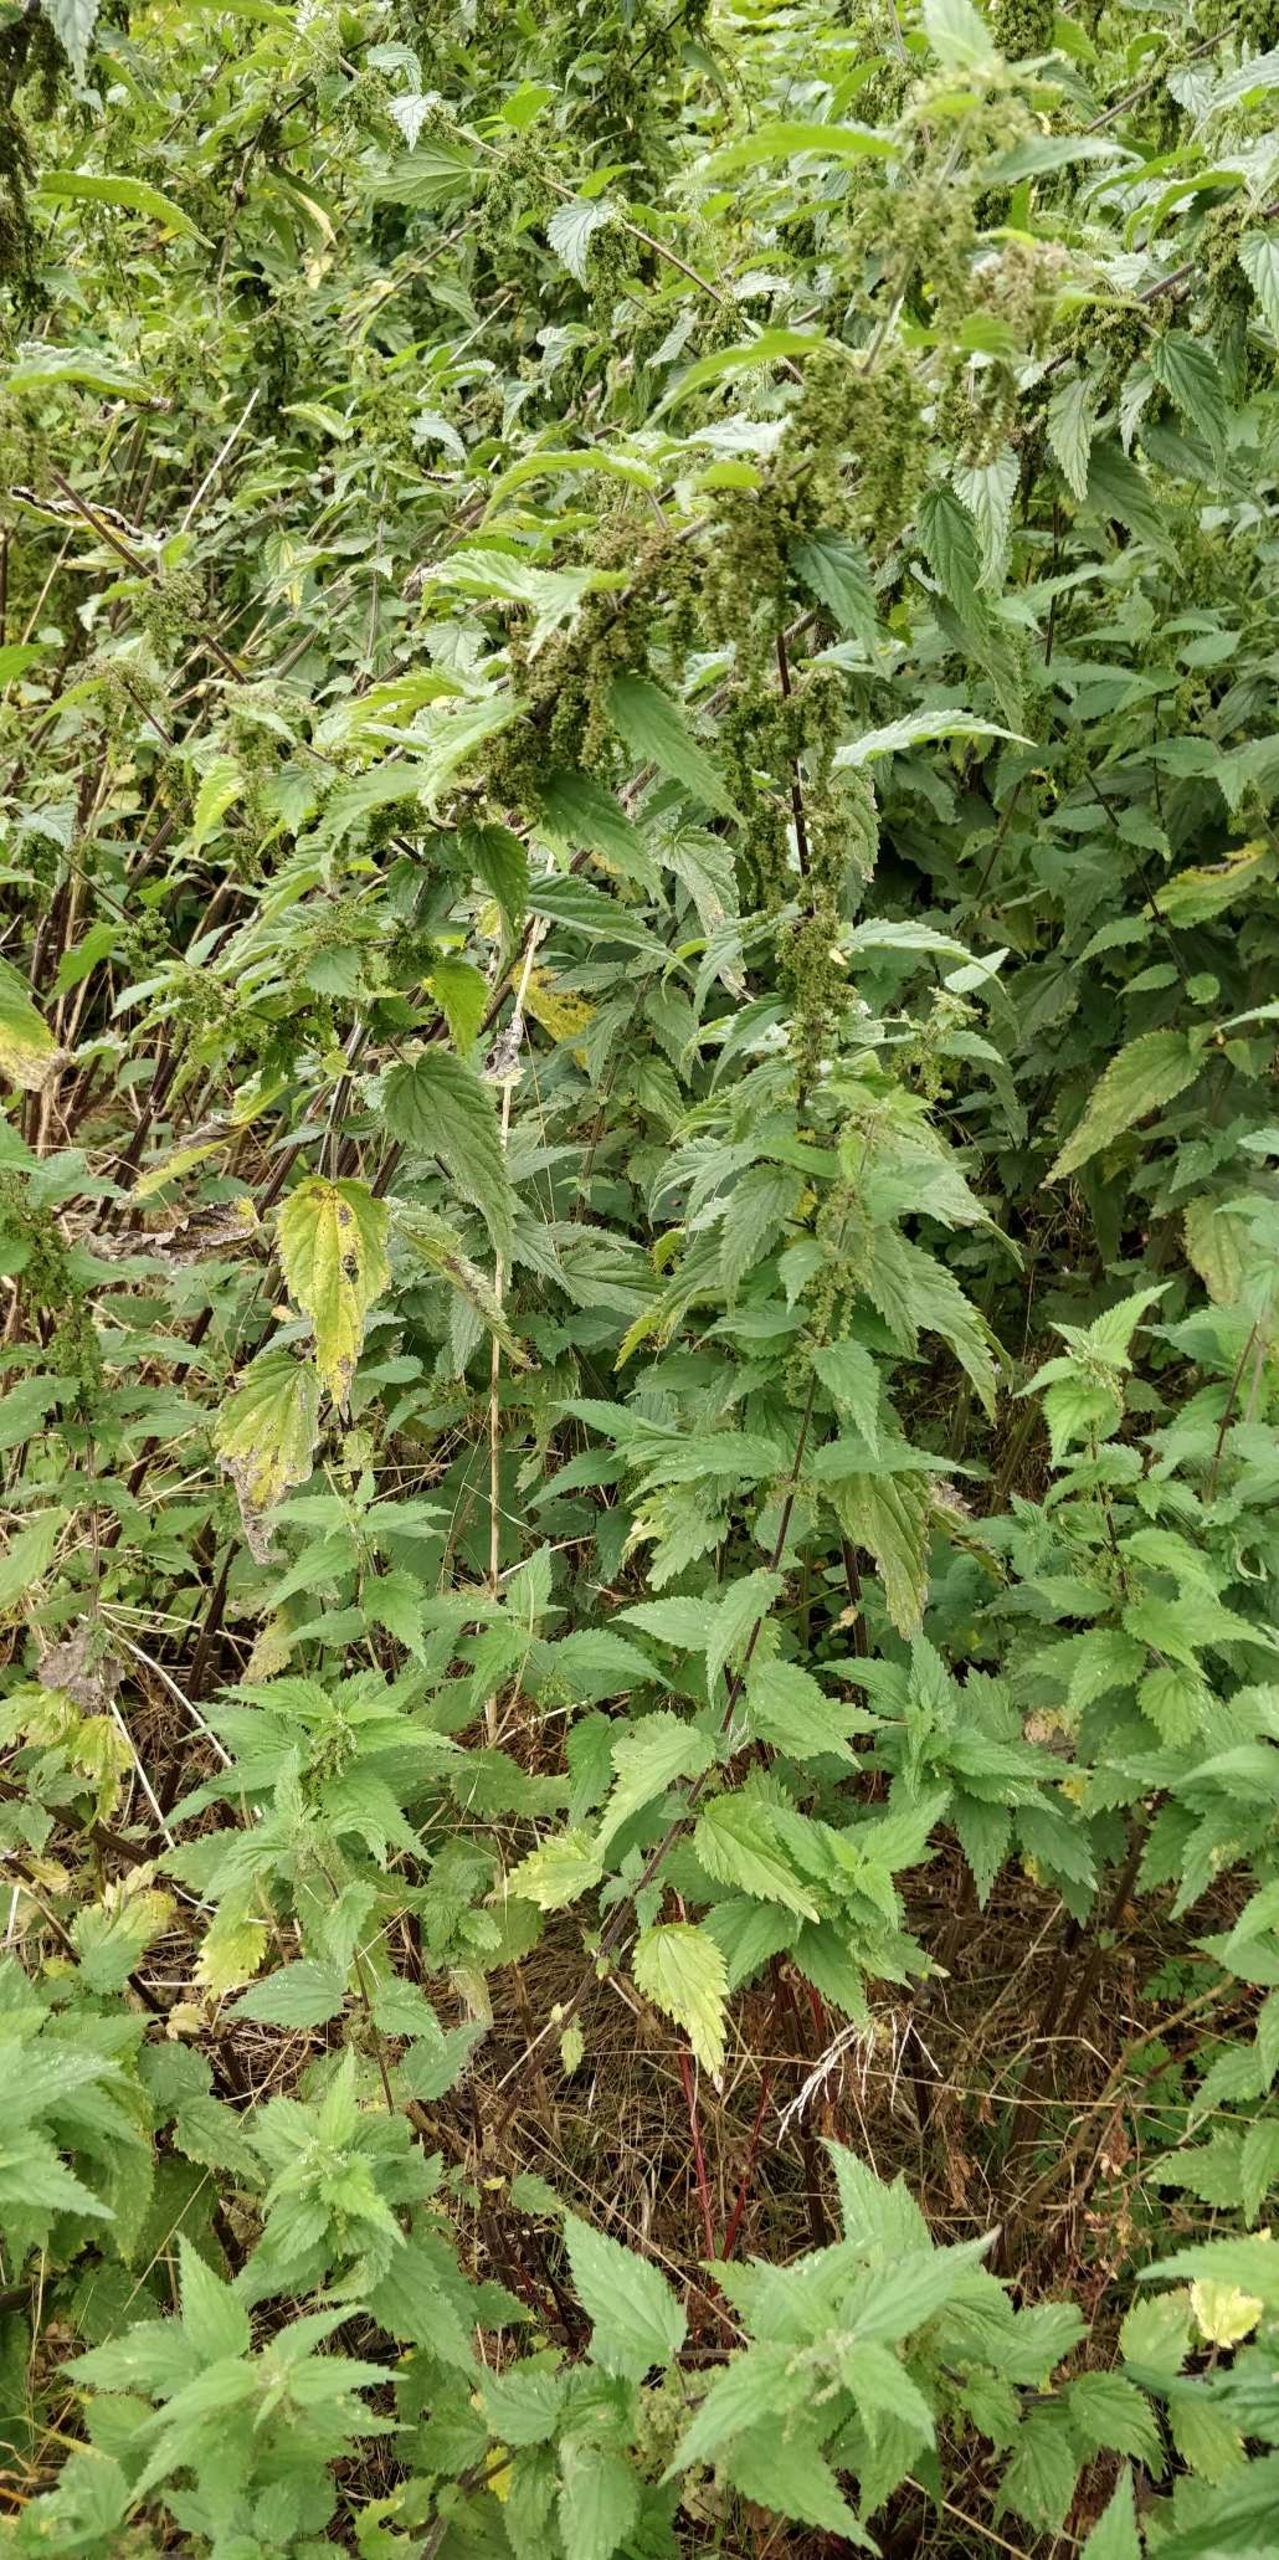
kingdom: Plantae
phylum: Tracheophyta
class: Magnoliopsida
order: Rosales
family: Urticaceae
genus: Urtica
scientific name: Urtica dioica
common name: Stor nælde
